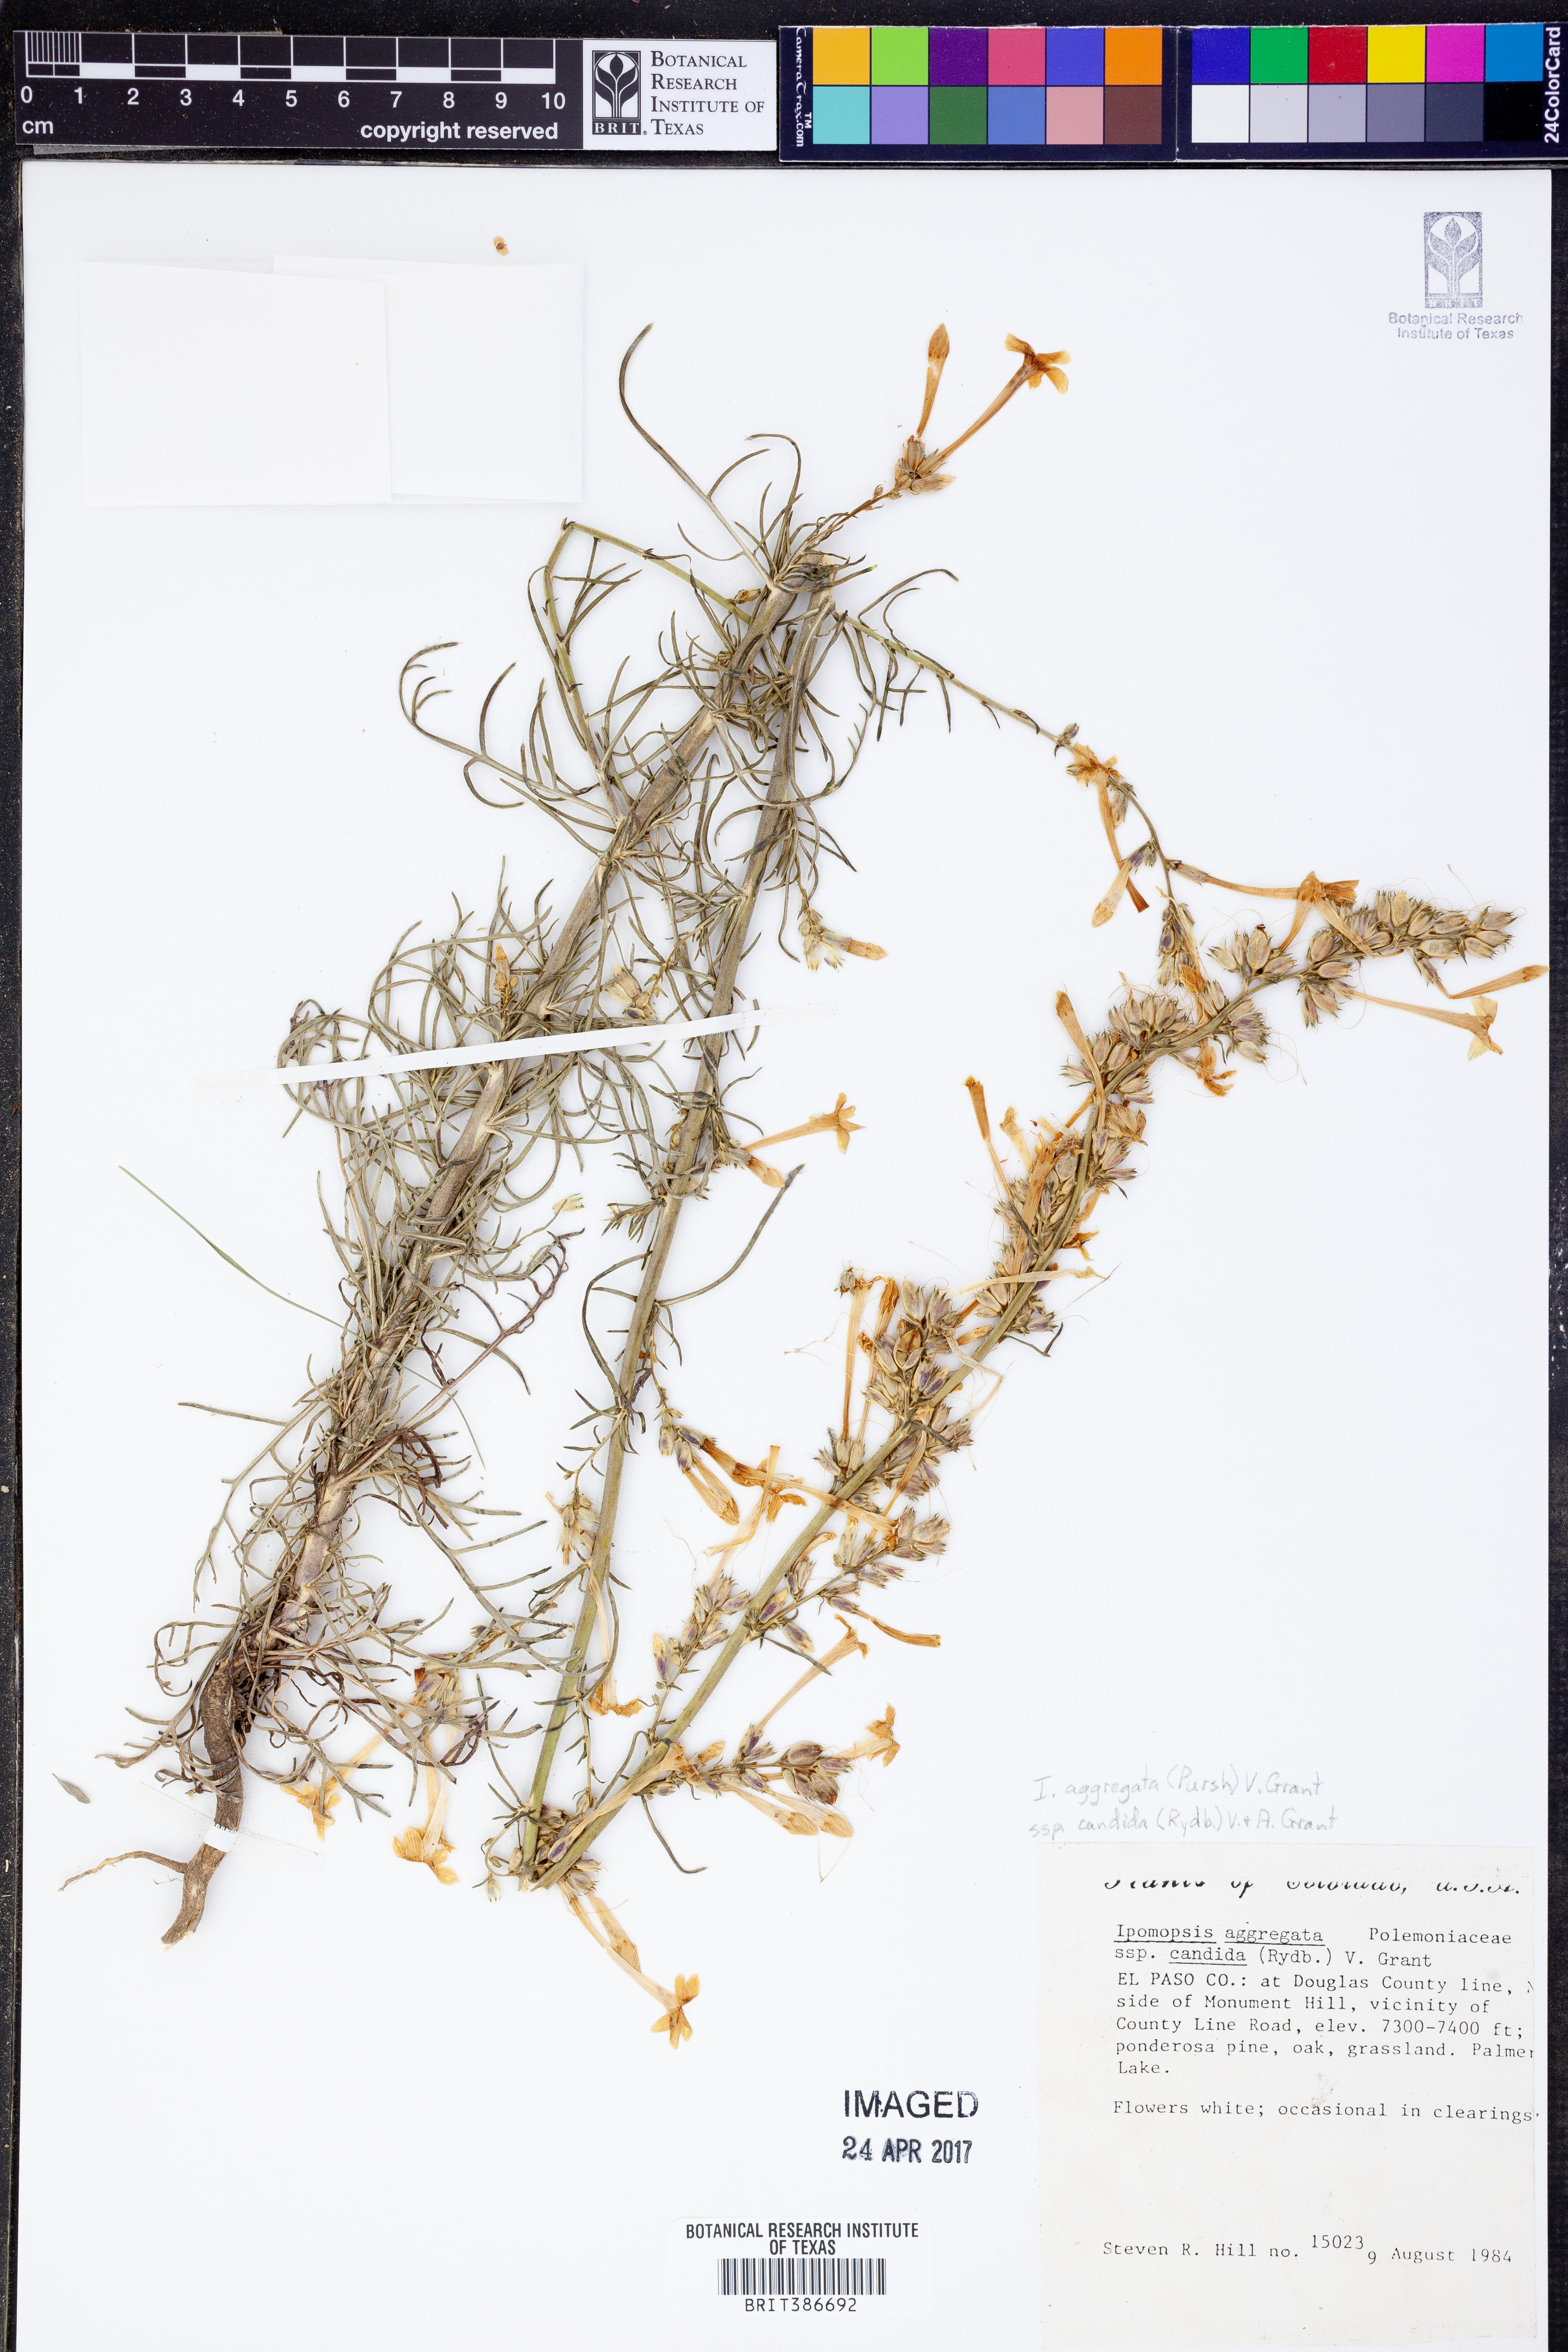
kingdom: Plantae
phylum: Tracheophyta
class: Magnoliopsida
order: Ericales
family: Polemoniaceae
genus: Ipomopsis
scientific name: Ipomopsis aggregata
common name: Scarlet gilia
